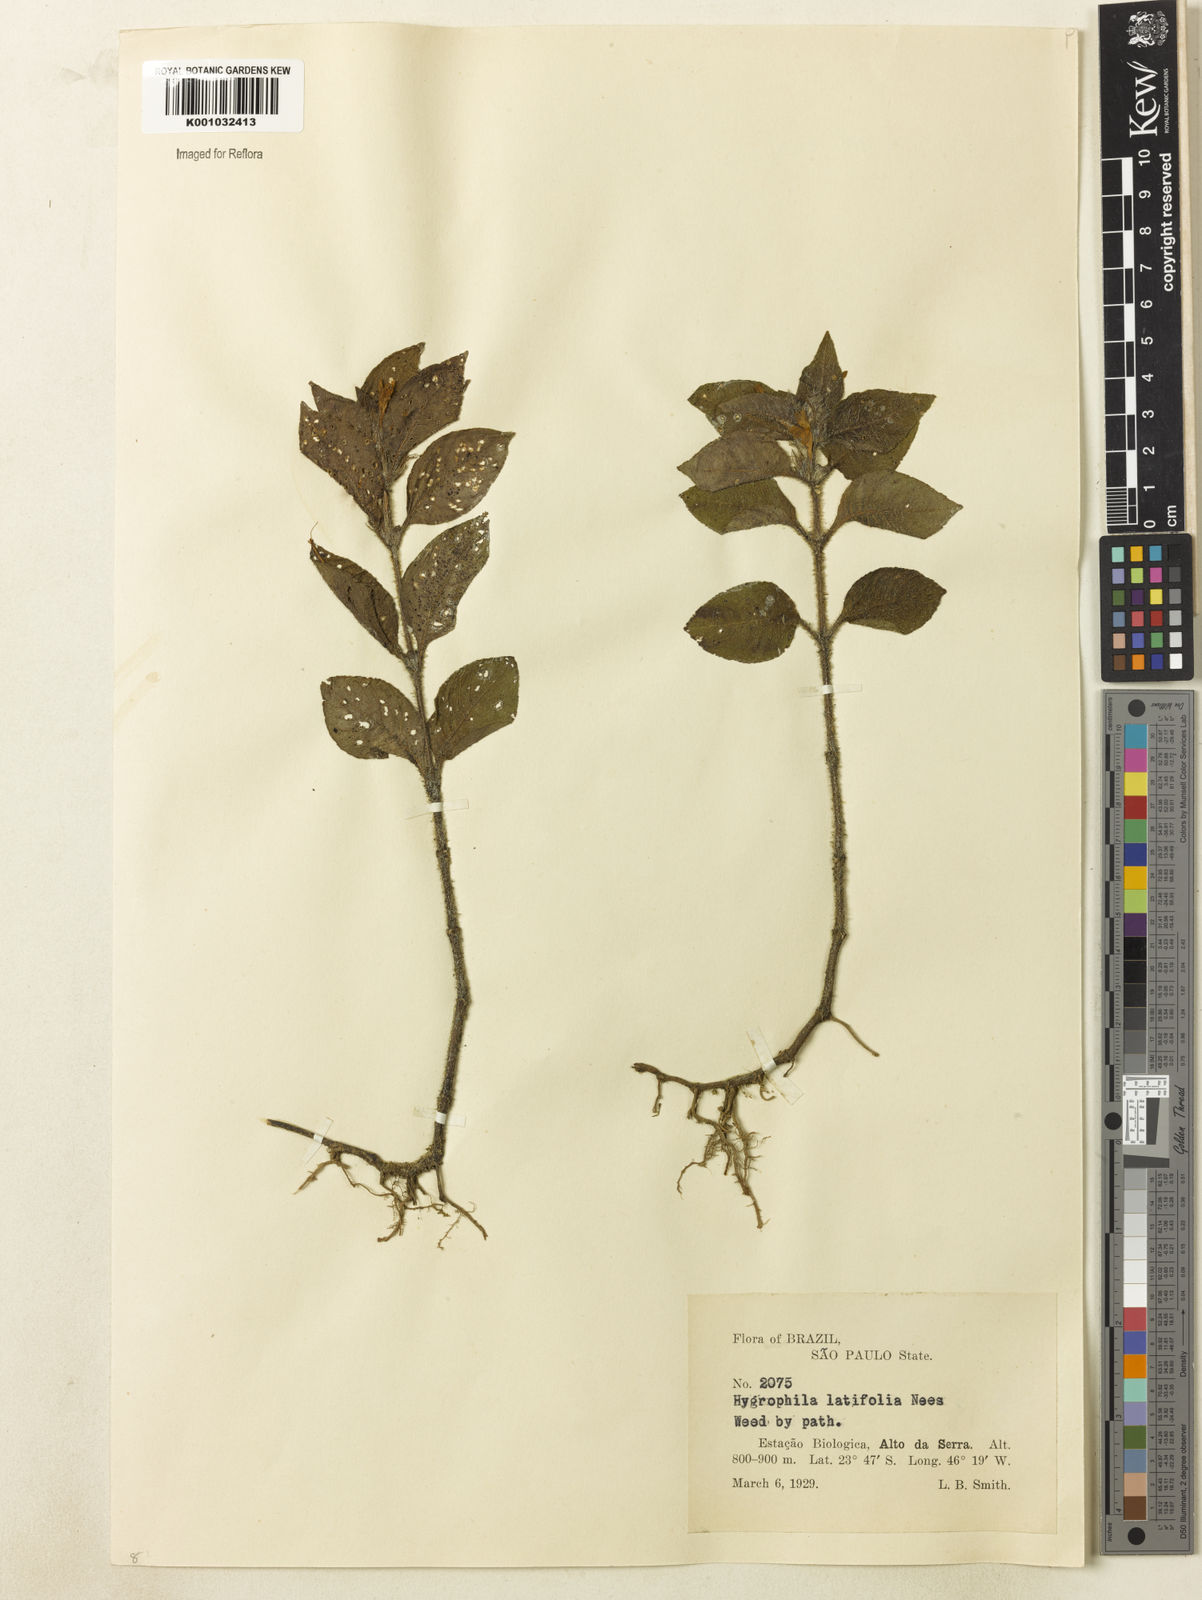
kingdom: Plantae
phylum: Tracheophyta
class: Magnoliopsida
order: Lamiales
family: Acanthaceae
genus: Hygrophila
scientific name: Hygrophila costata
